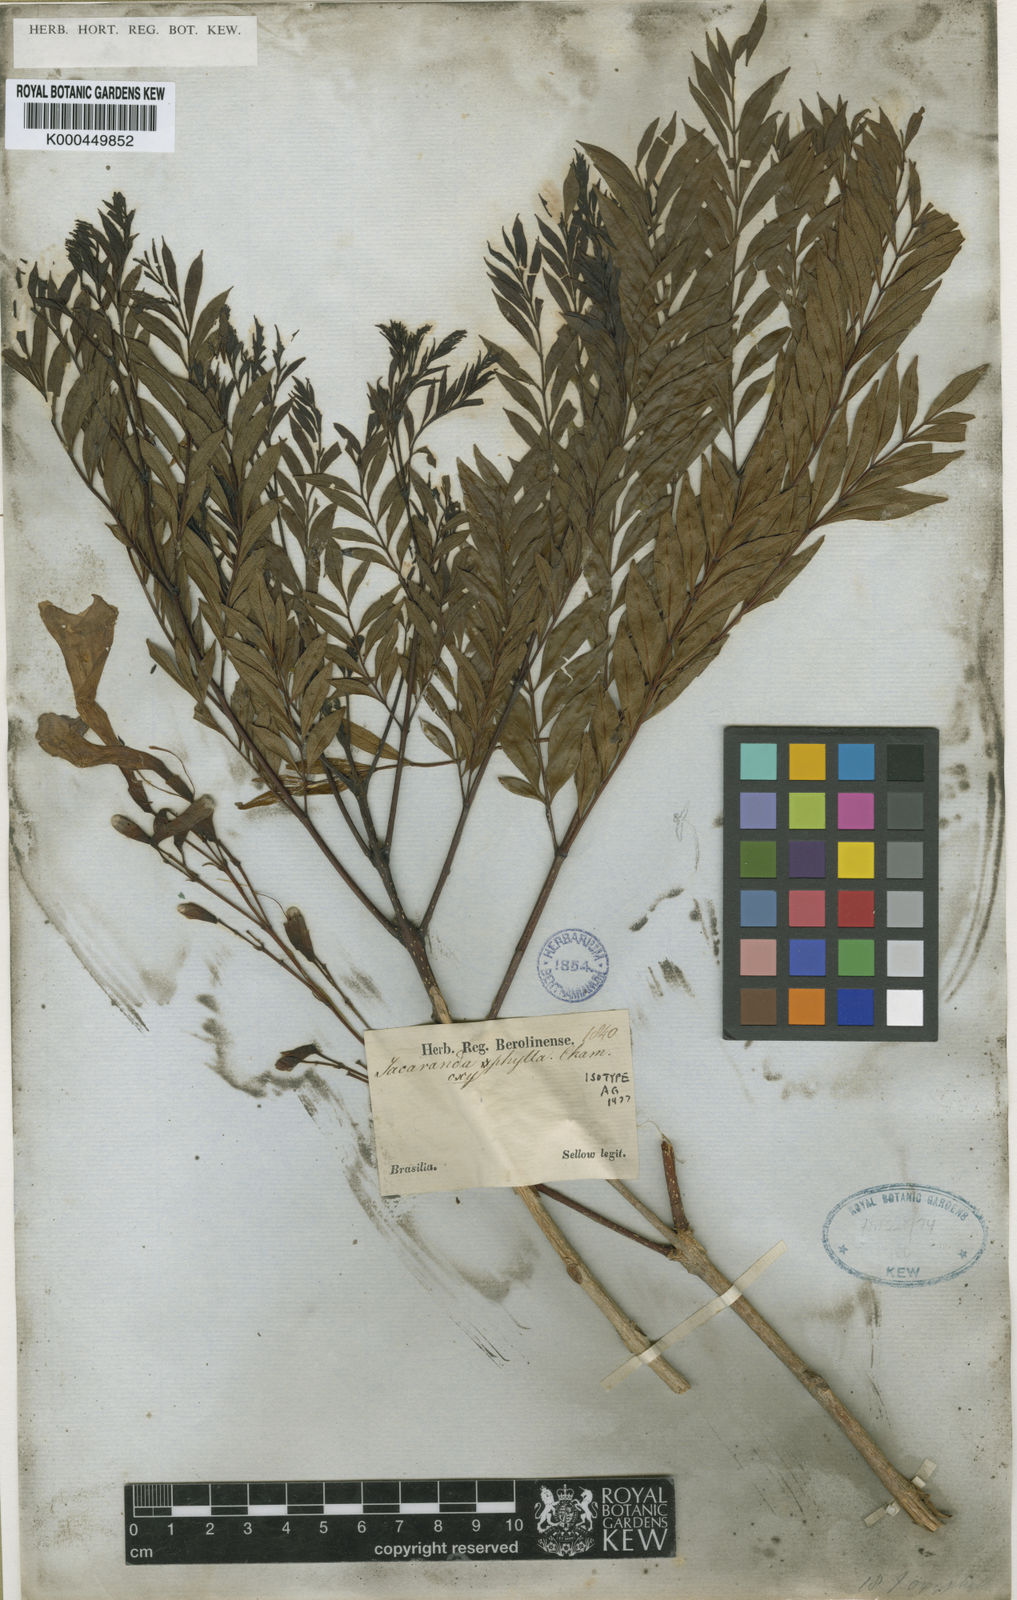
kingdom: Plantae
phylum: Tracheophyta
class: Magnoliopsida
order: Lamiales
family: Bignoniaceae
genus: Jacaranda
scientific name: Jacaranda caroba
